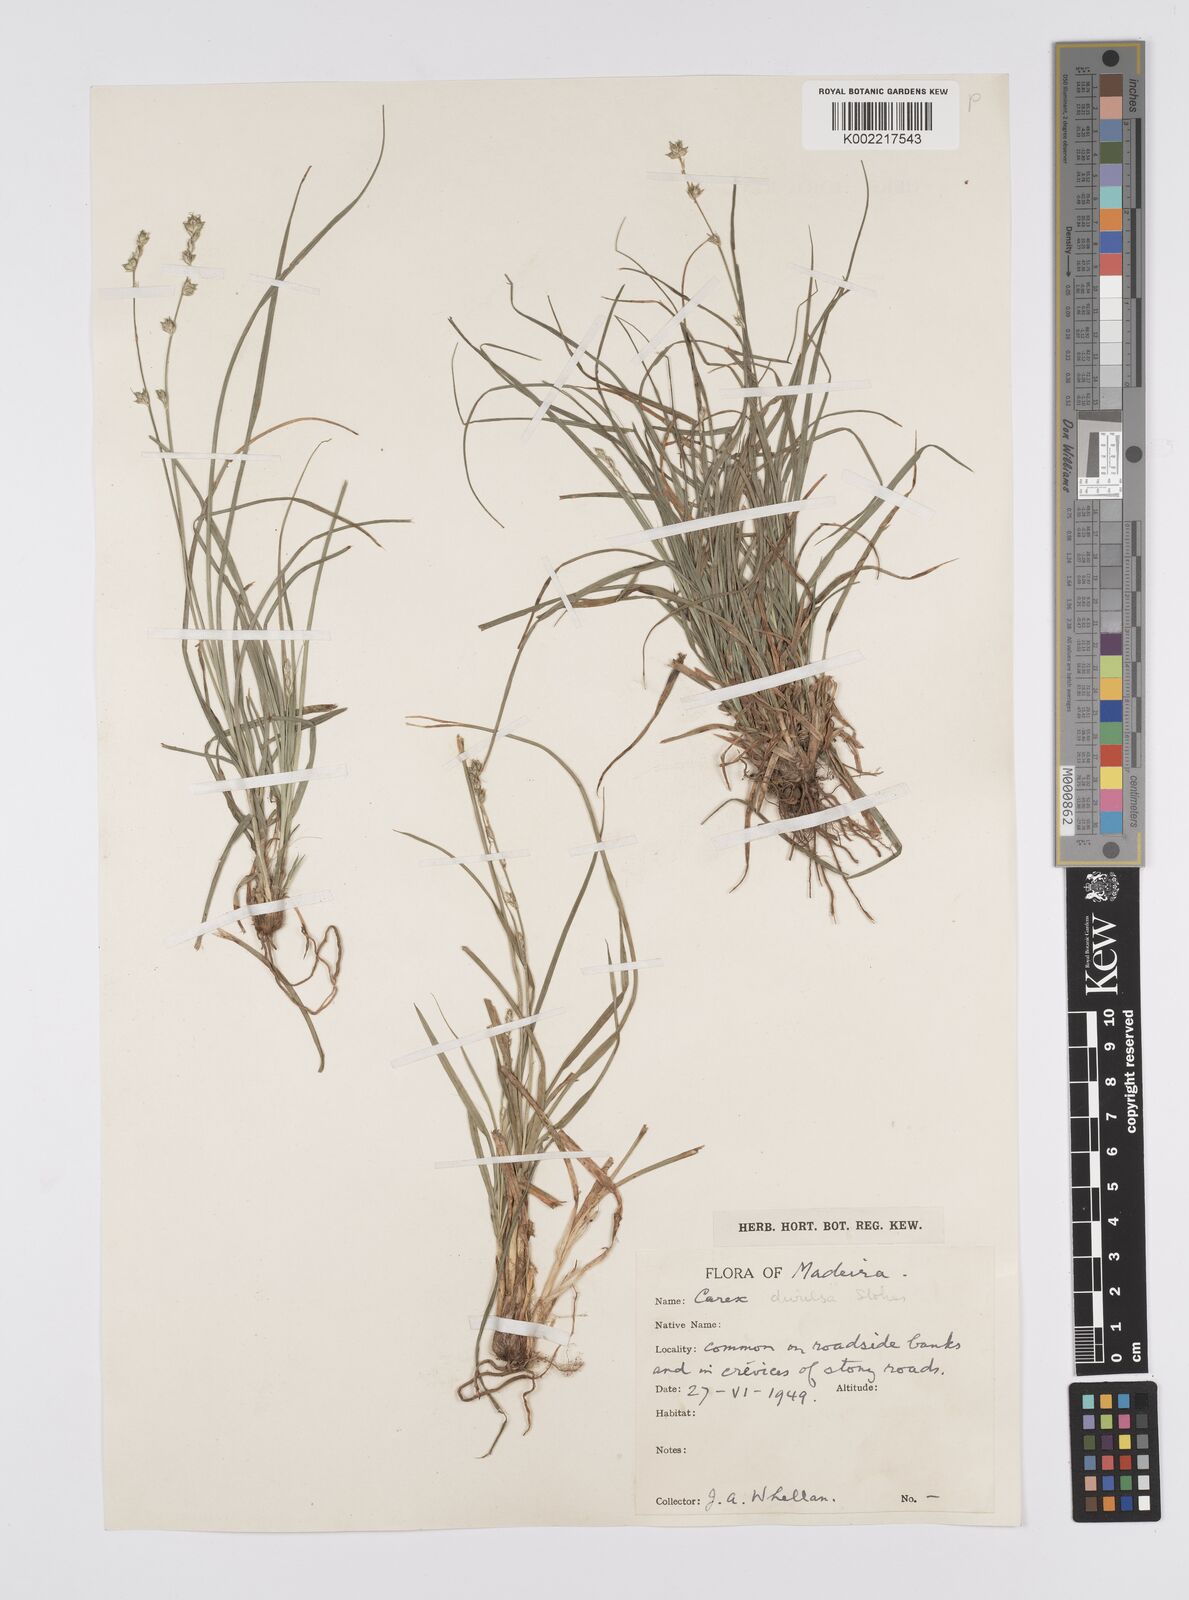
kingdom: Plantae
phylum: Tracheophyta
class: Liliopsida
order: Poales
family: Cyperaceae
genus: Carex
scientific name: Carex divulsa
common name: Grassland sedge
